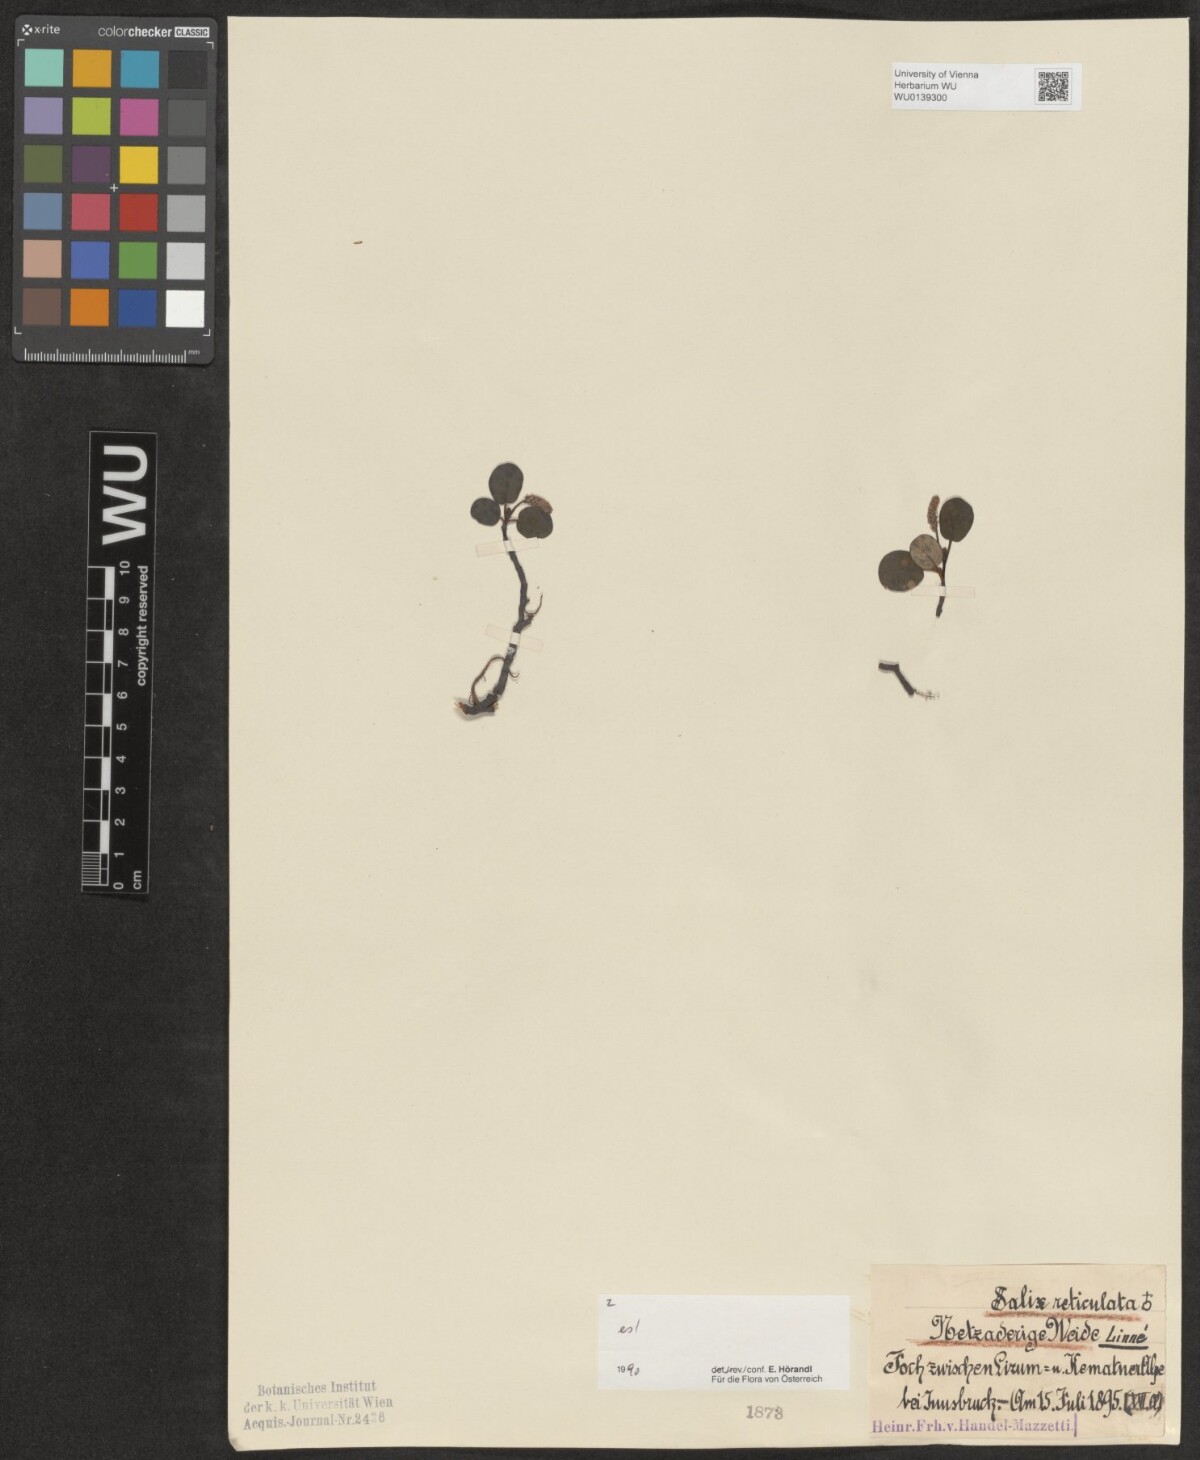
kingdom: Plantae
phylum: Tracheophyta
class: Magnoliopsida
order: Malpighiales
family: Salicaceae
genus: Salix
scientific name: Salix reticulata
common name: Net-leaved willow
